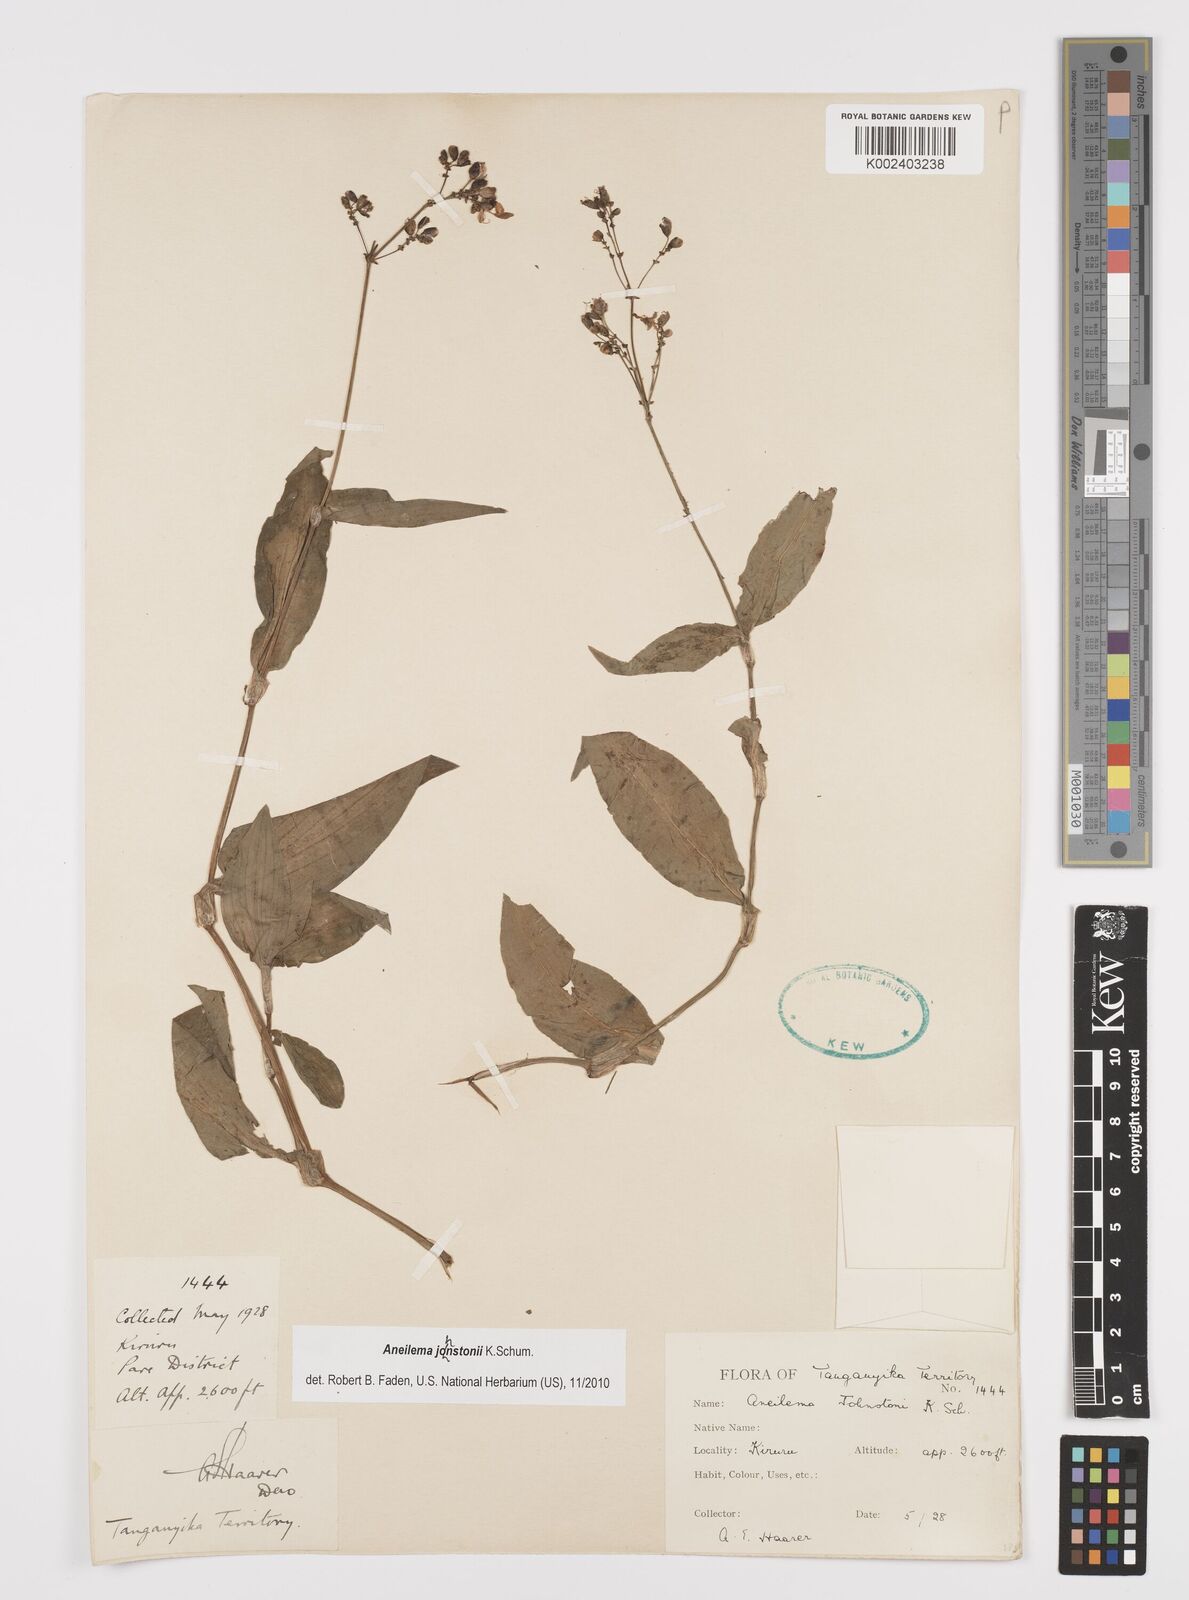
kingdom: Plantae
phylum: Tracheophyta
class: Liliopsida
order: Commelinales
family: Commelinaceae
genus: Aneilema
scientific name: Aneilema johnstonii
